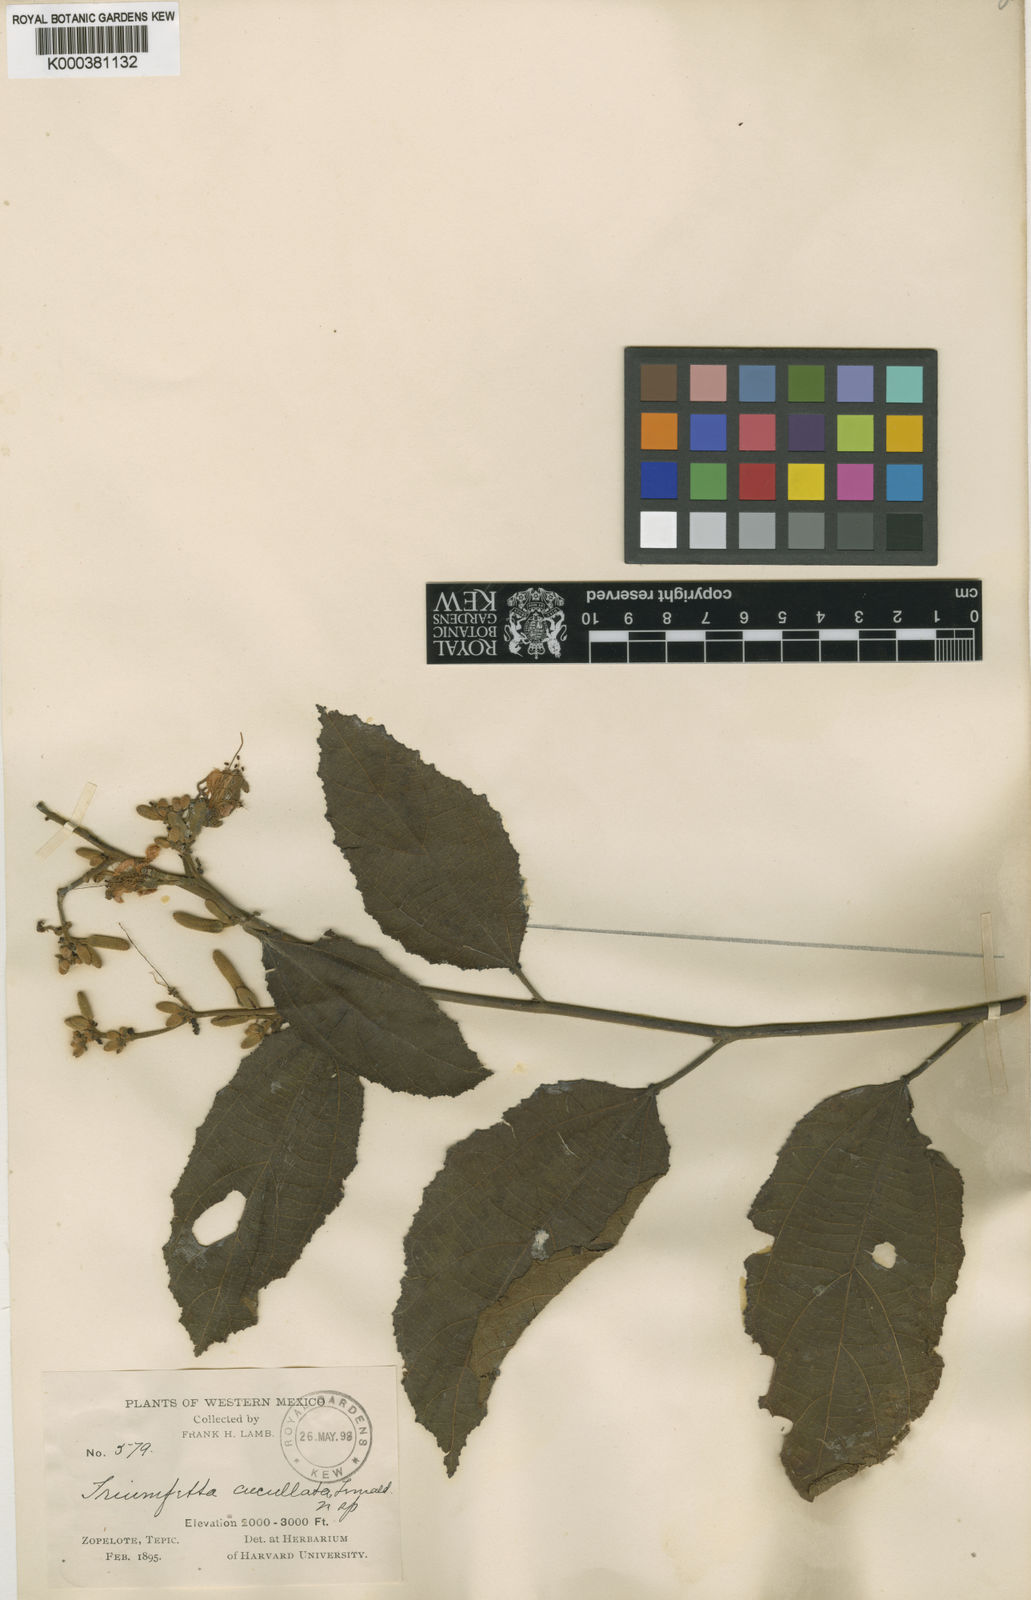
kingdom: Plantae
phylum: Tracheophyta
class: Magnoliopsida
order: Malvales
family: Malvaceae
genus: Triumfetta
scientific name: Triumfetta cucullata
